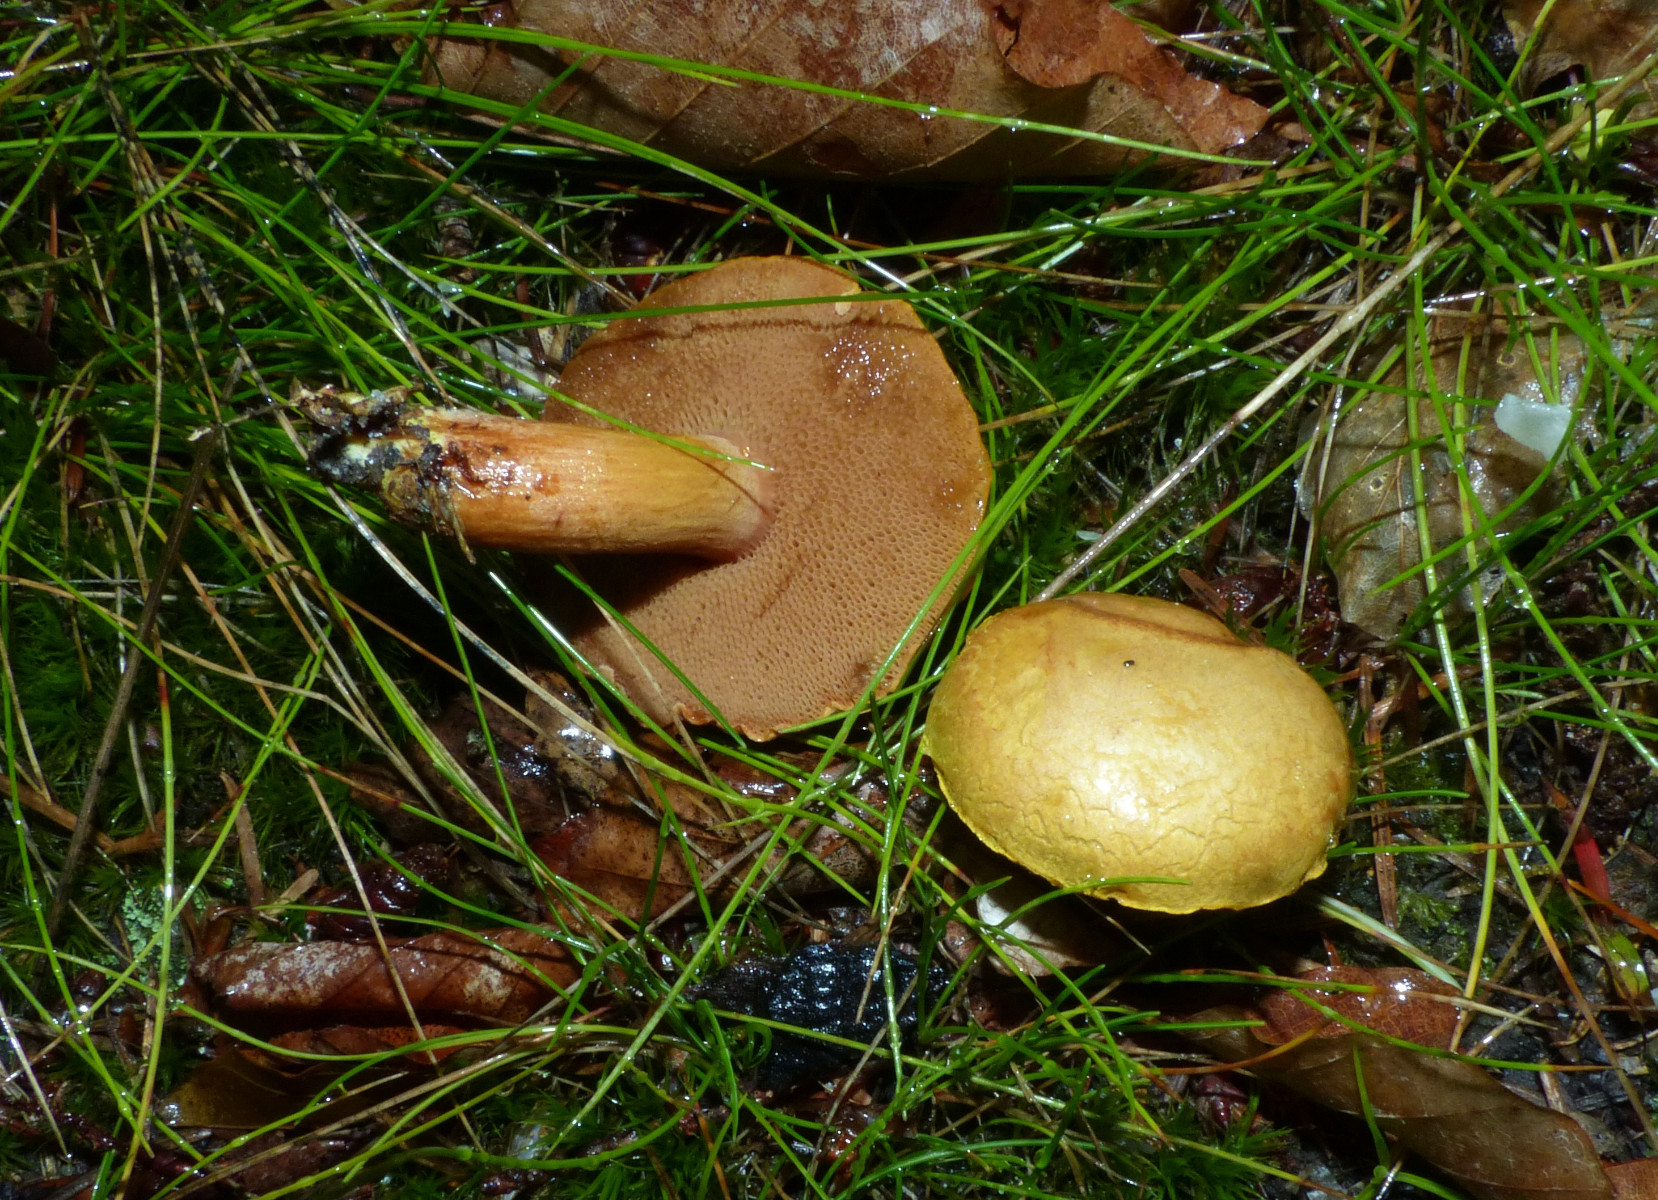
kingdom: Fungi
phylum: Basidiomycota
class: Agaricomycetes
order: Boletales
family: Boletaceae
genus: Chalciporus
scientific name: Chalciporus piperatus
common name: peberrørhat
